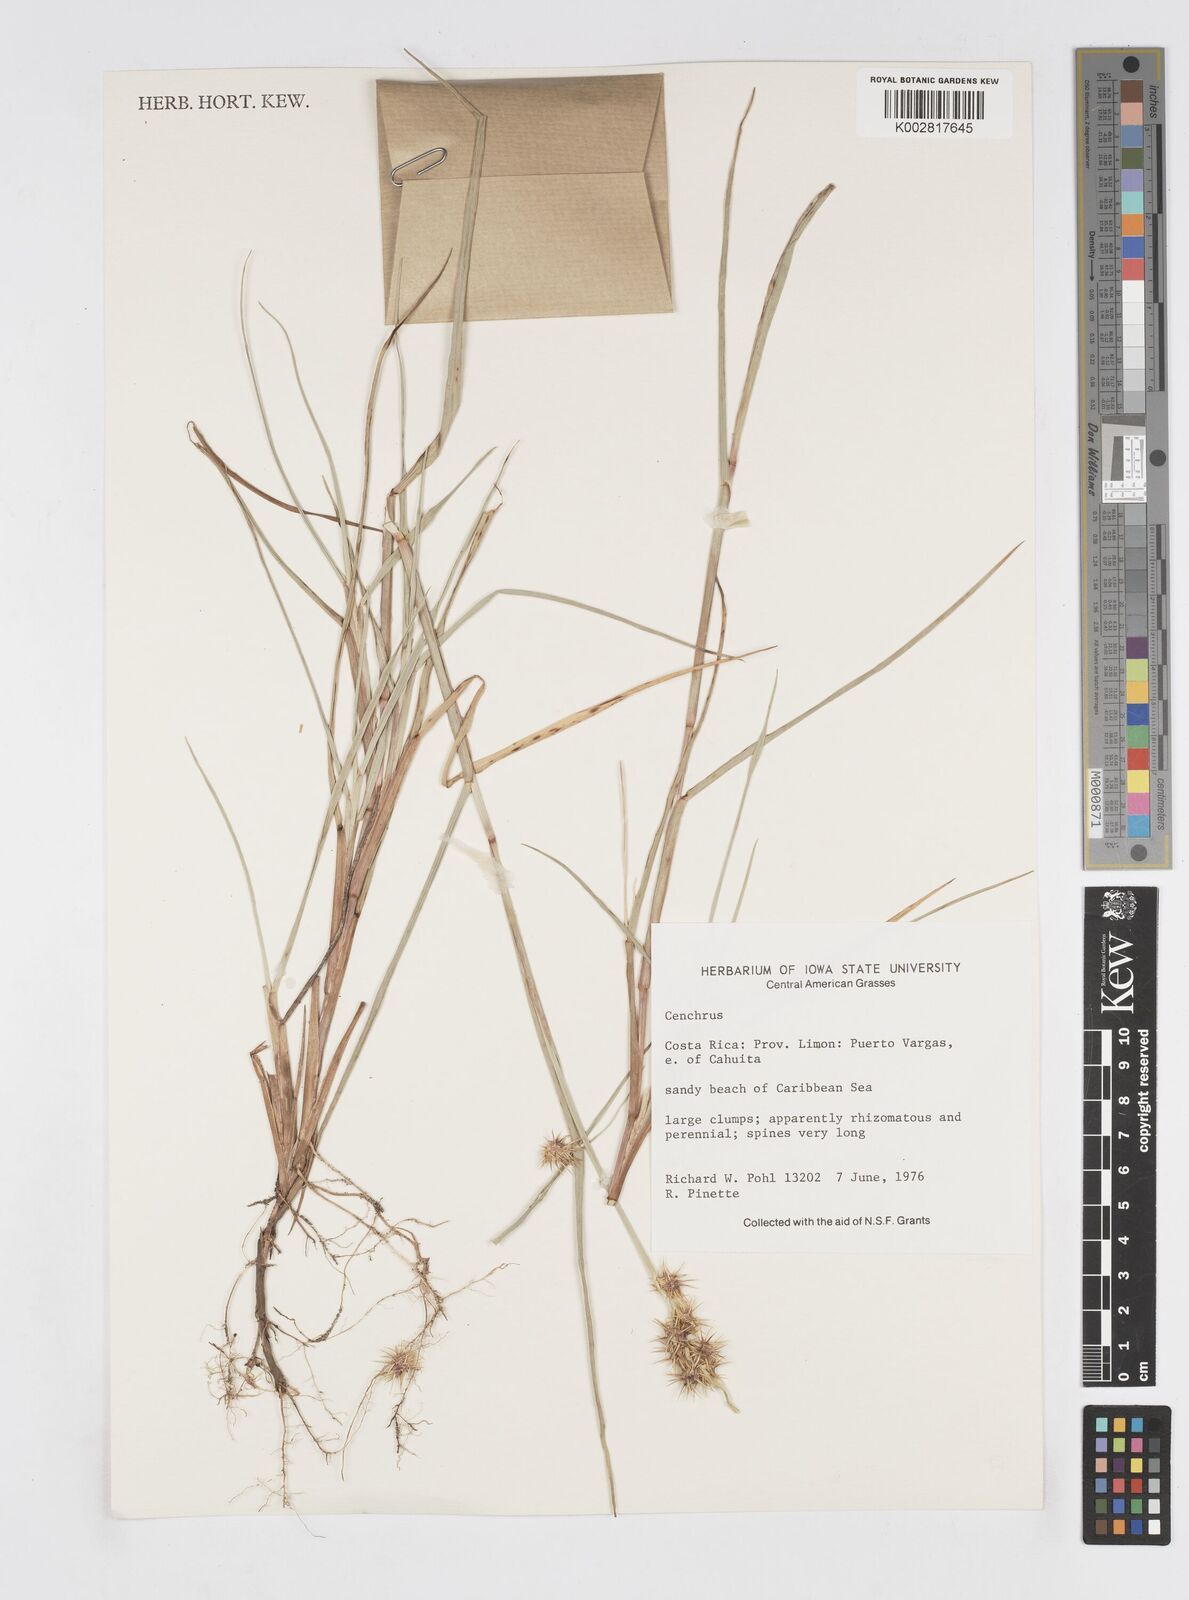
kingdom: Plantae
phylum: Tracheophyta
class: Liliopsida
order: Poales
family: Poaceae
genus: Cenchrus
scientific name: Cenchrus
